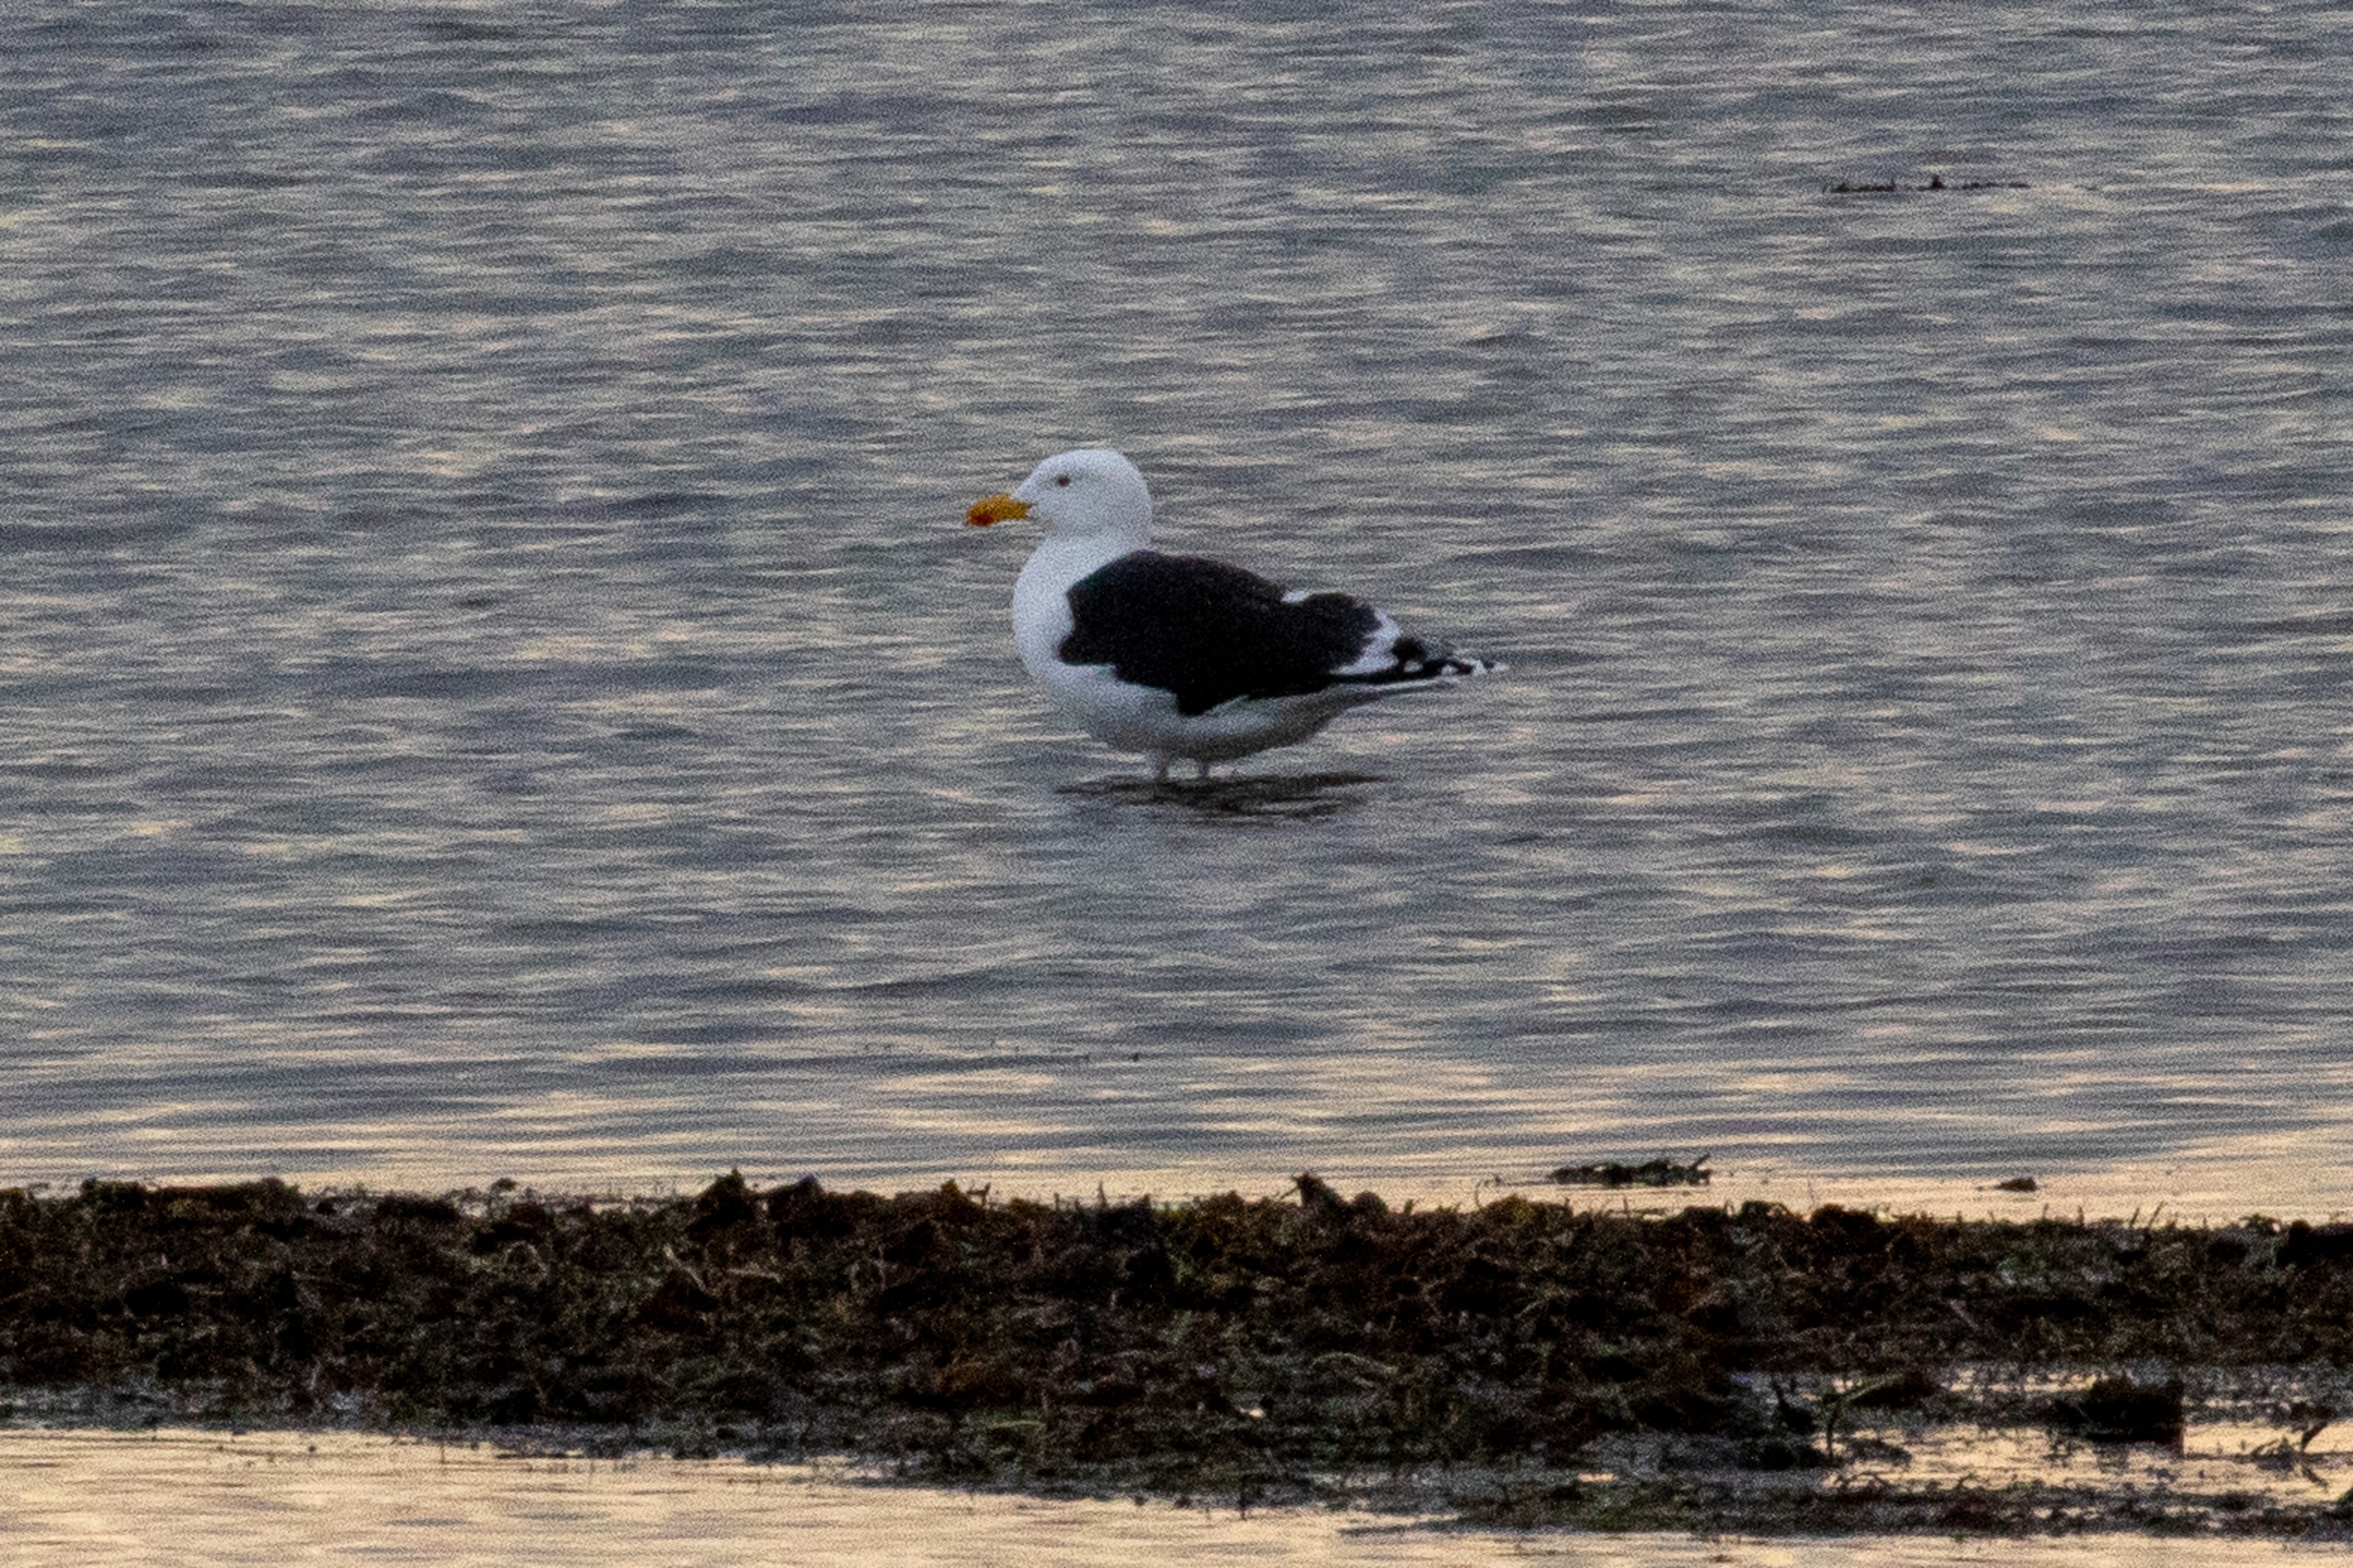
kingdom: Animalia
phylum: Chordata
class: Aves
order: Charadriiformes
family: Laridae
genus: Larus
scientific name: Larus marinus
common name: Svartbag
